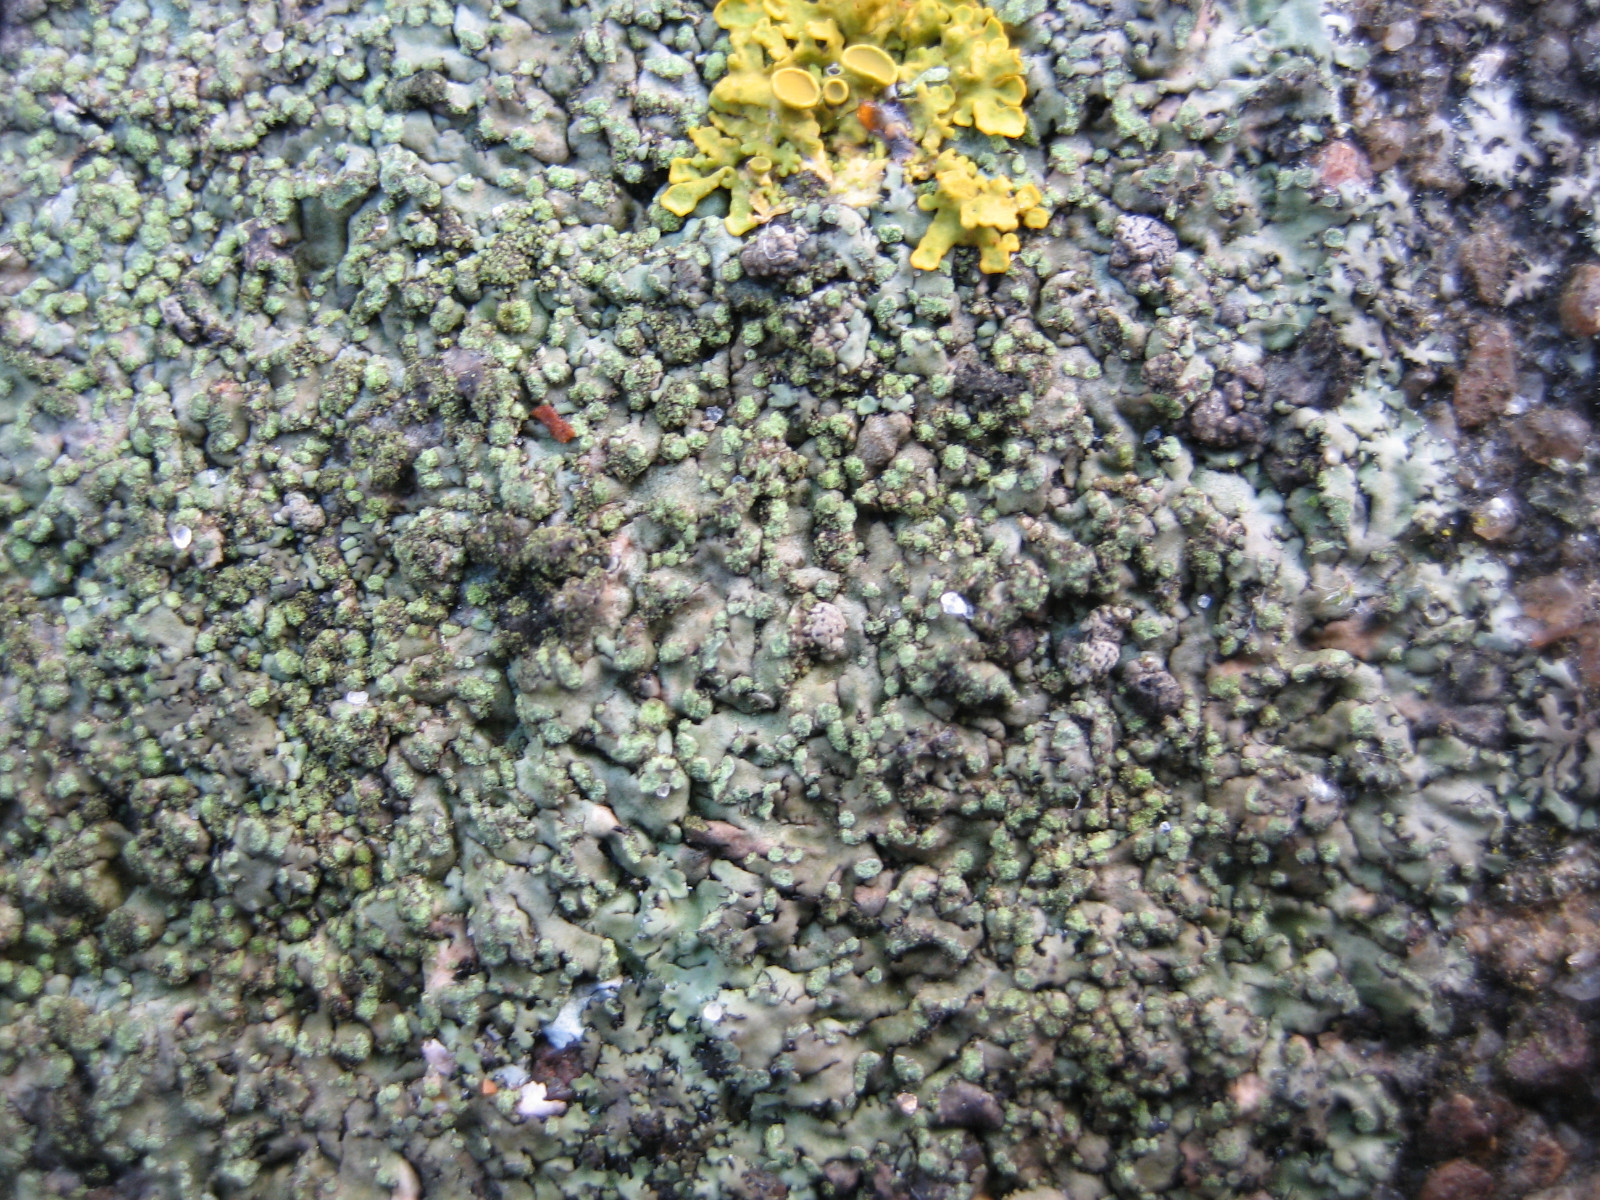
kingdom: Fungi
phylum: Ascomycota
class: Sordariomycetes
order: Phyllachorales
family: Phyllachoraceae
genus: Lichenochora
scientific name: Lichenochora obscuroides
